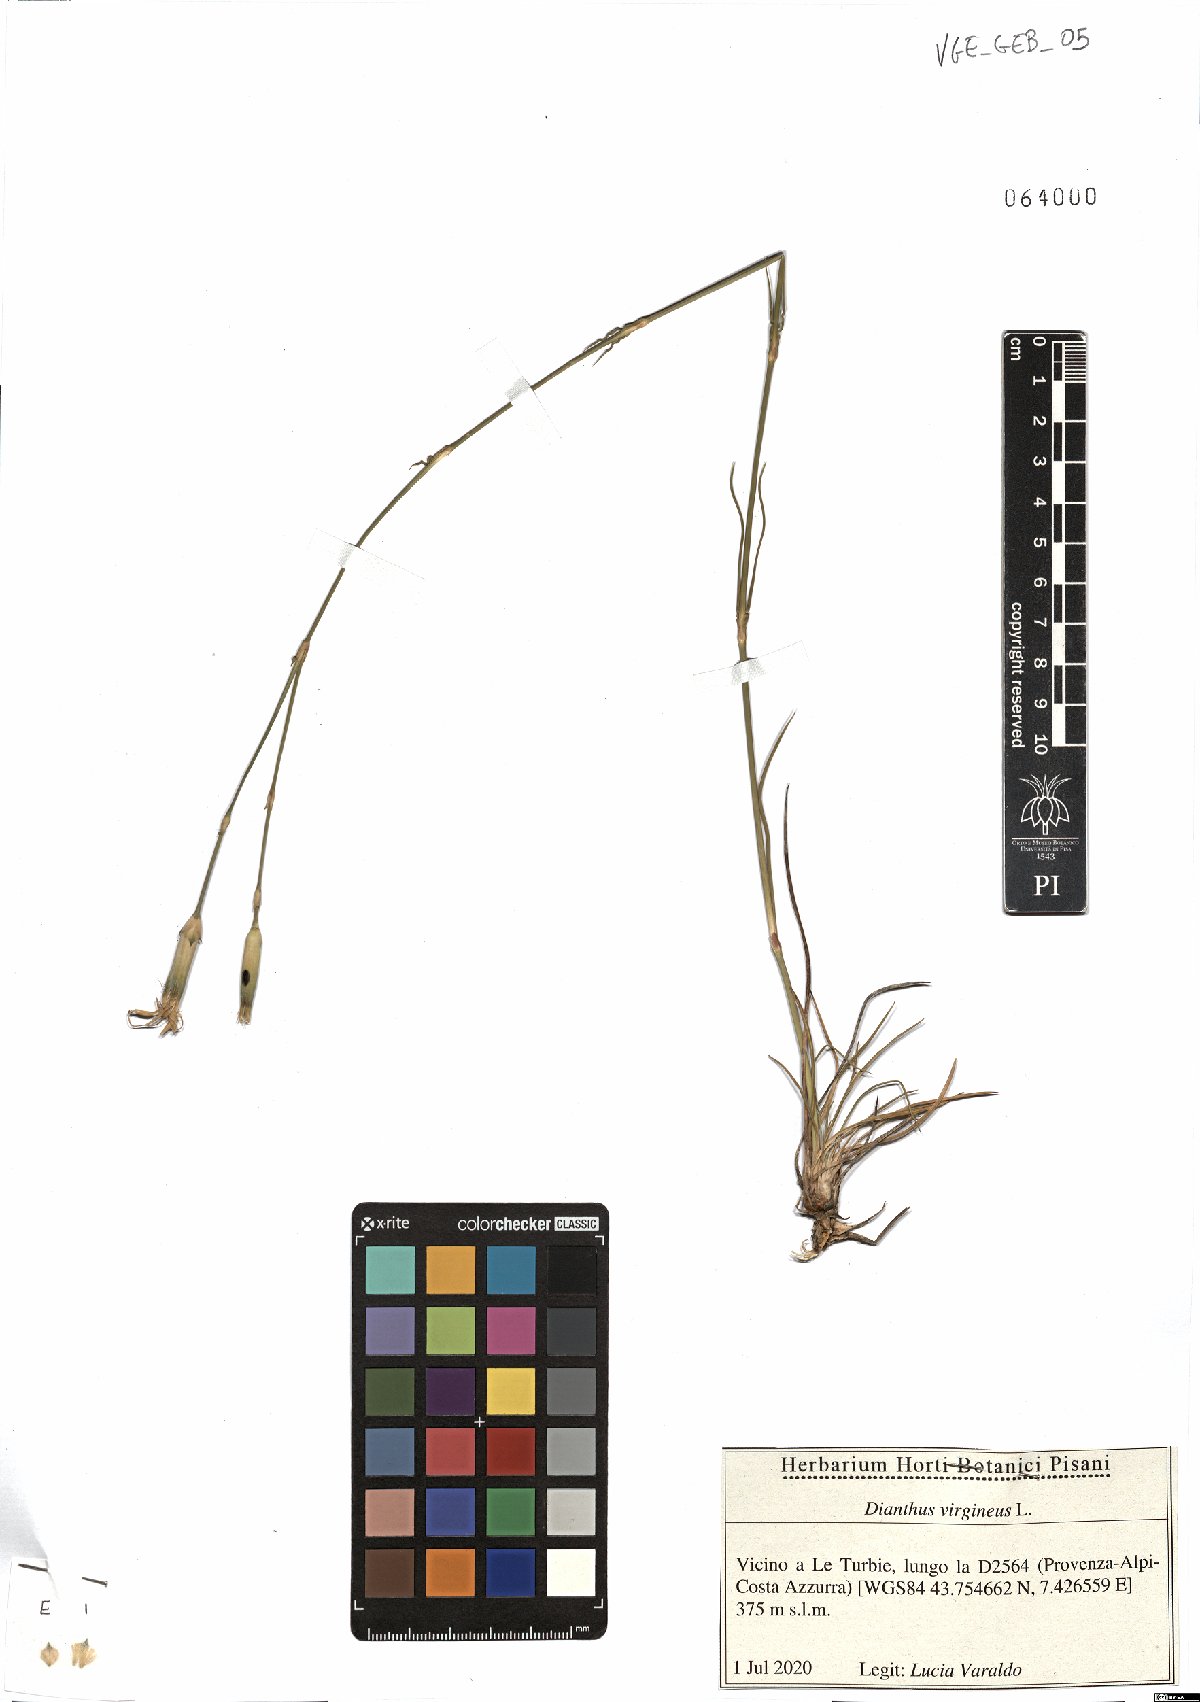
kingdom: Plantae
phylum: Tracheophyta
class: Magnoliopsida
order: Caryophyllales
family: Caryophyllaceae
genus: Dianthus
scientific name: Dianthus virgineus
